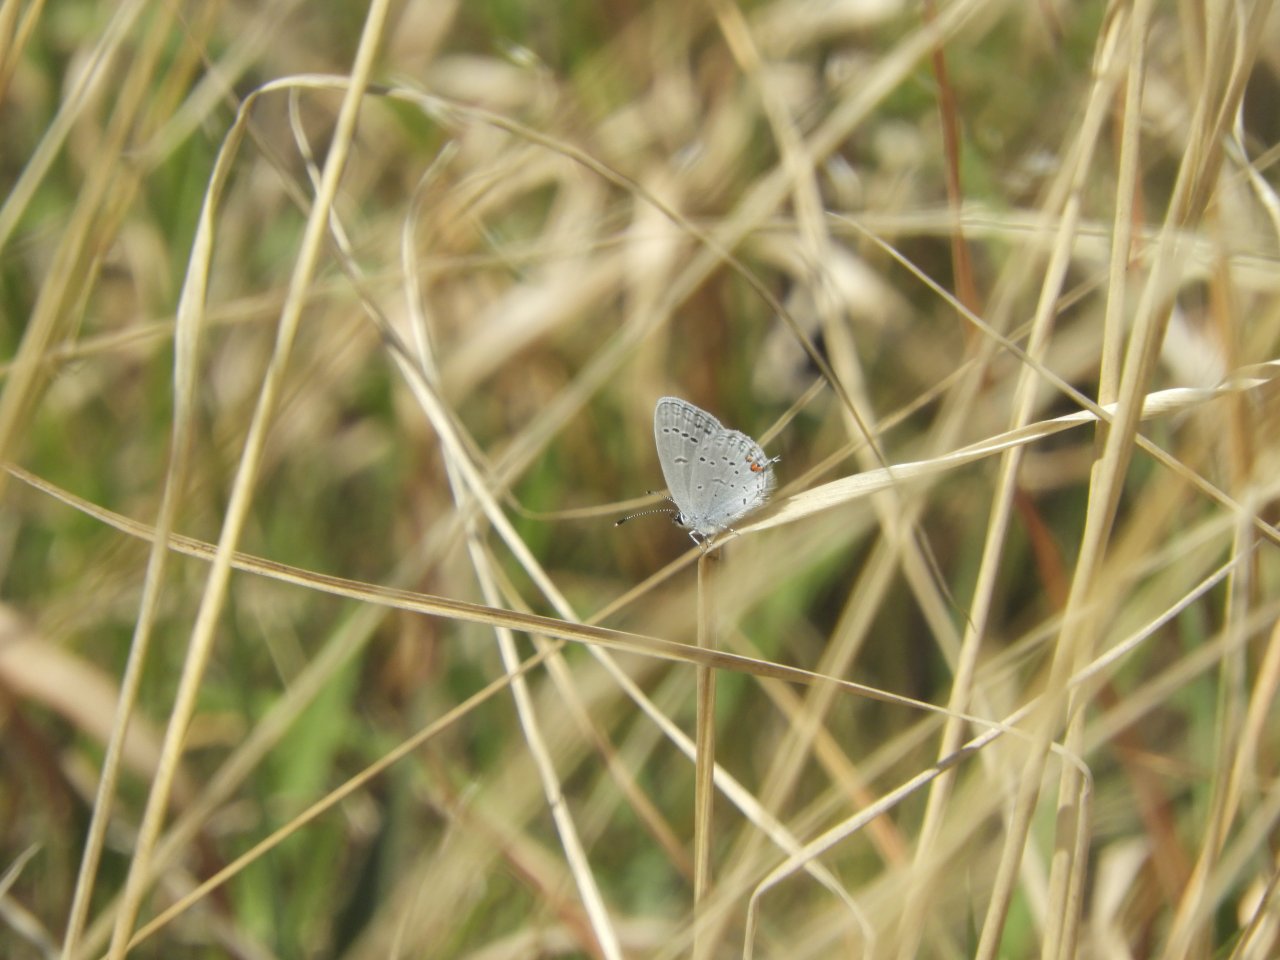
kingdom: Animalia
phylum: Arthropoda
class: Insecta
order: Lepidoptera
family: Lycaenidae
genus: Elkalyce
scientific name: Elkalyce comyntas
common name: Eastern Tailed-Blue
